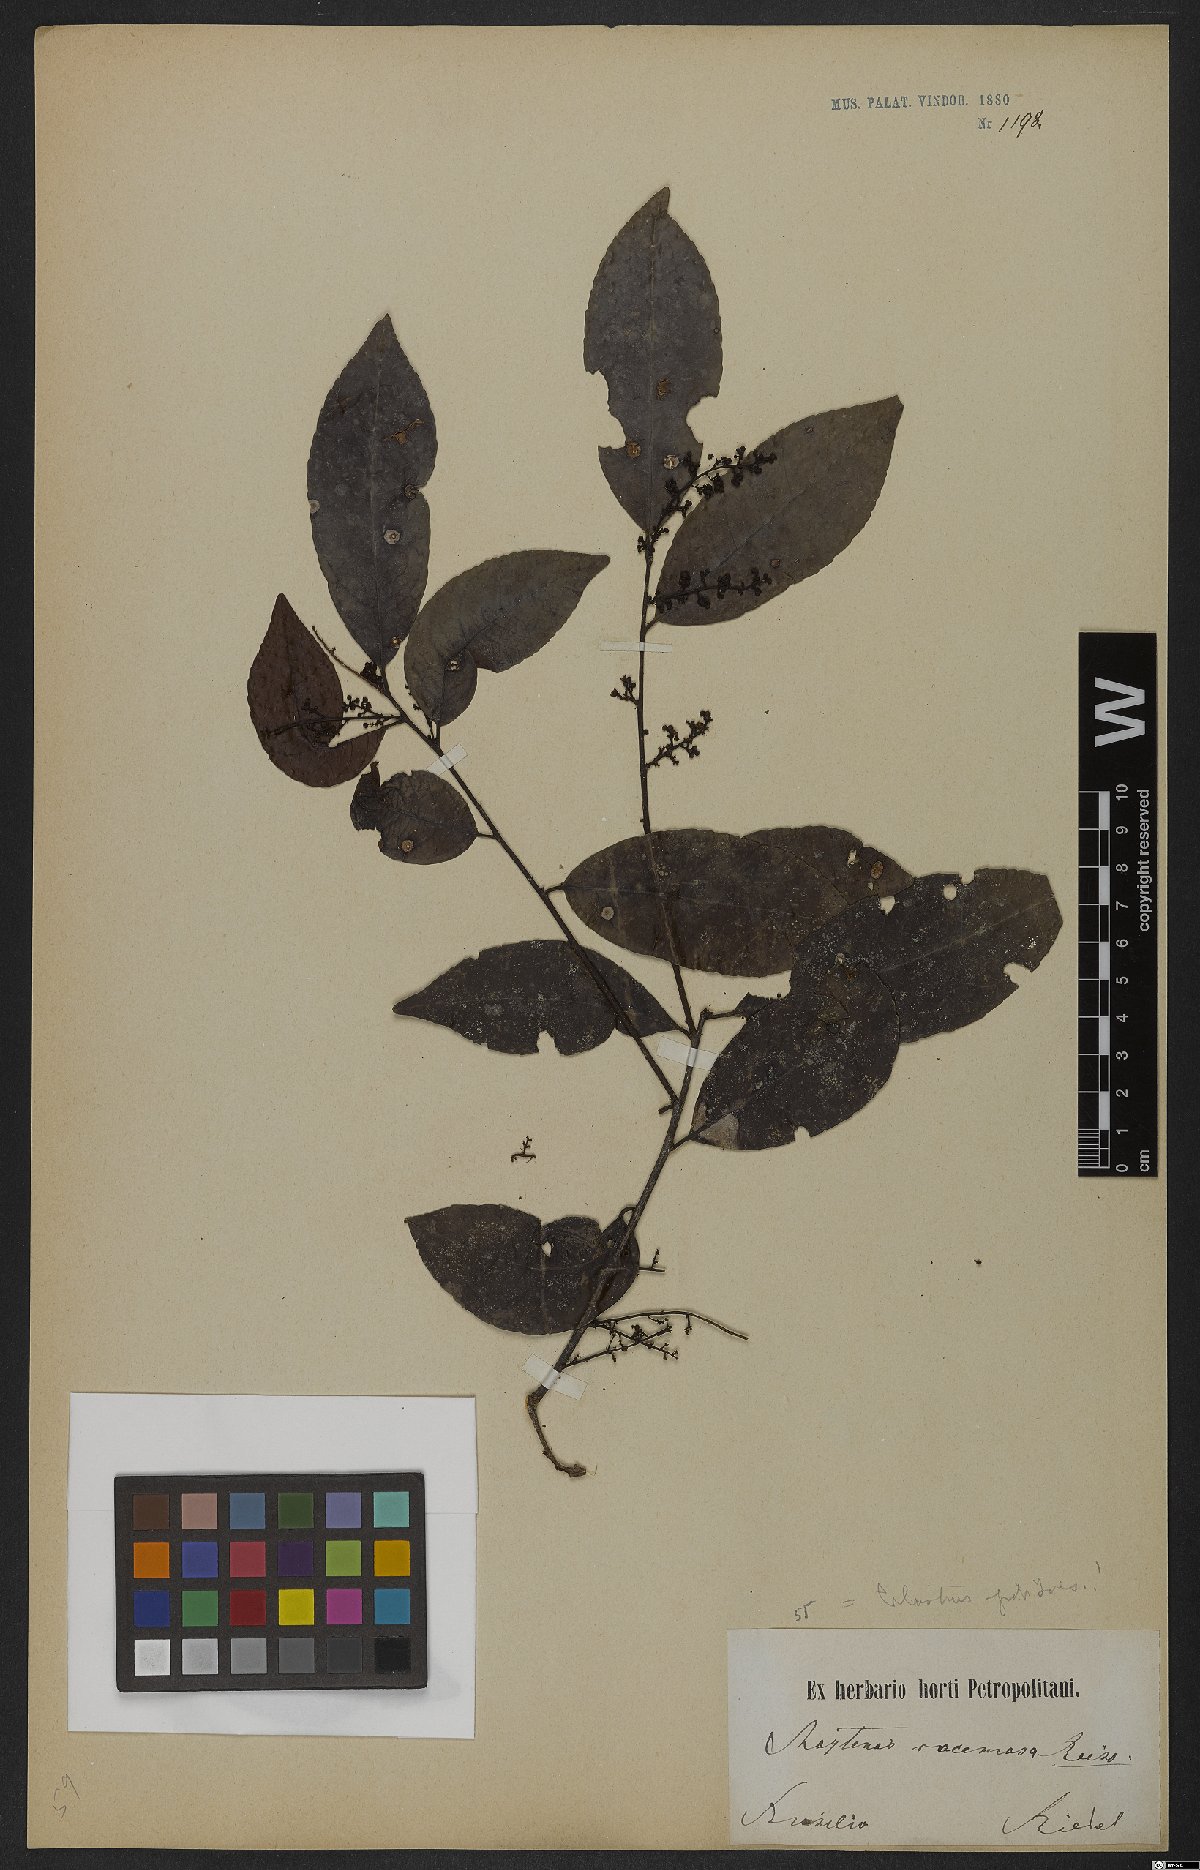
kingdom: Plantae
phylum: Tracheophyta
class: Magnoliopsida
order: Celastrales
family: Celastraceae
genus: Celastrus
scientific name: Celastrus grenadensis
